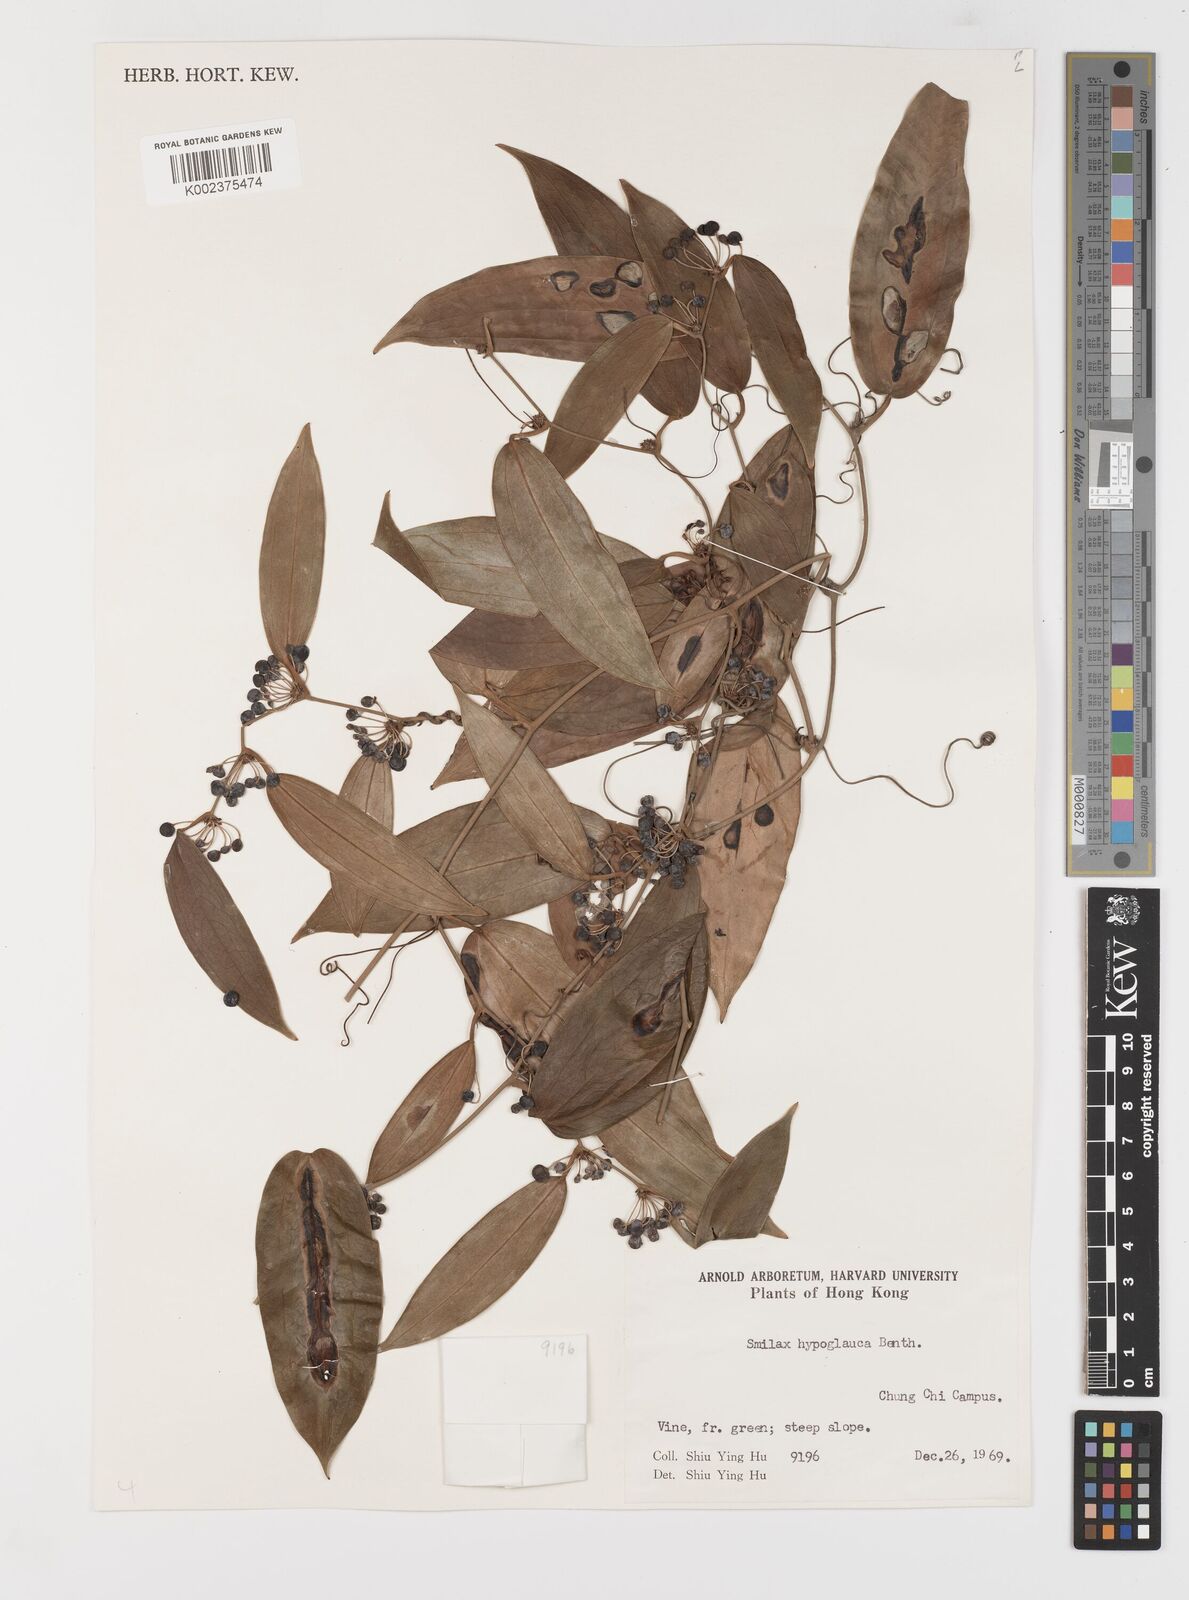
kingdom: Plantae
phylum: Tracheophyta
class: Liliopsida
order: Liliales
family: Smilacaceae
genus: Smilax
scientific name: Smilax hypoglauca
